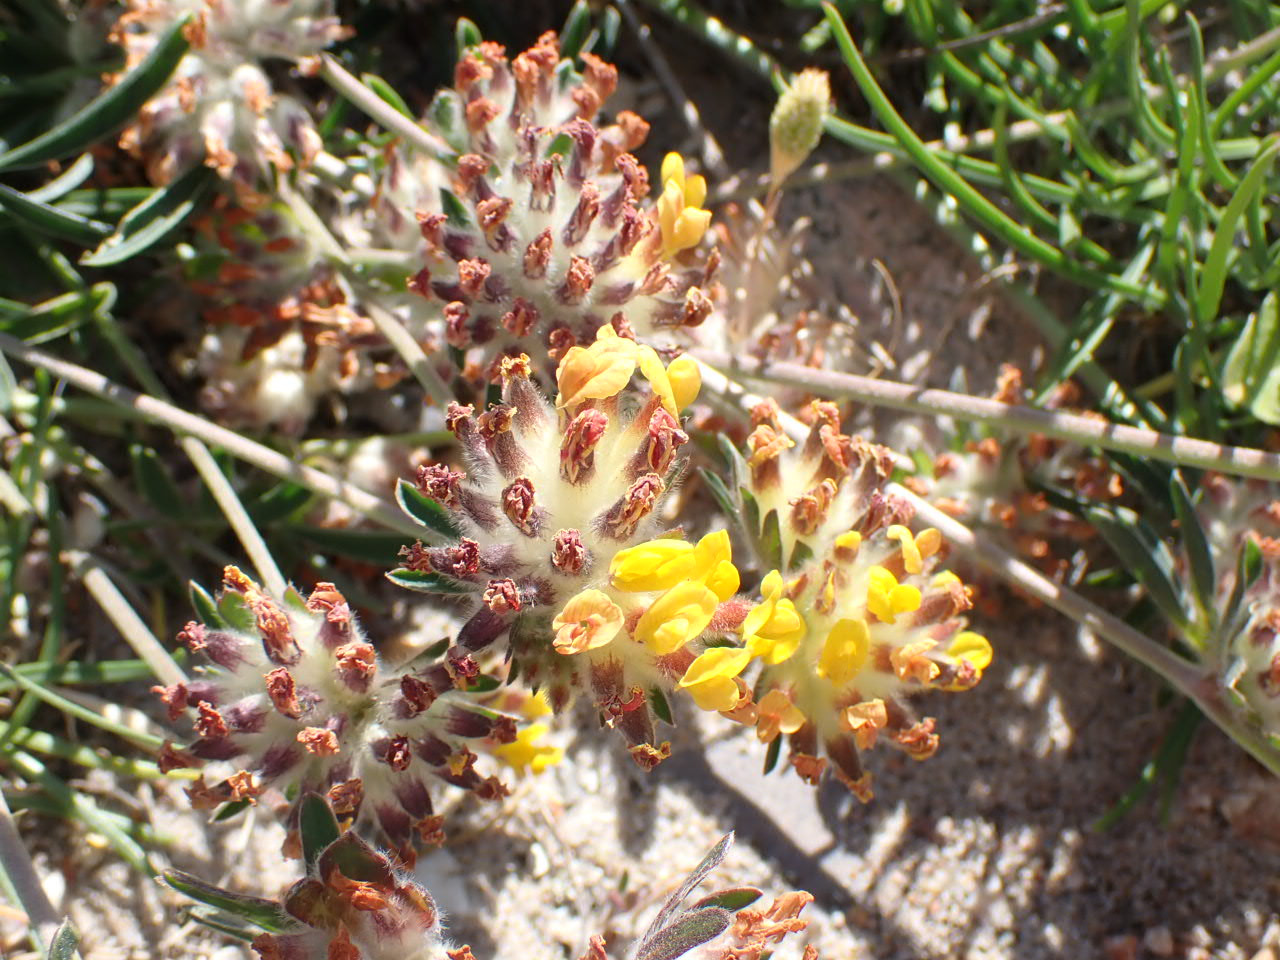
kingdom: Plantae
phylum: Tracheophyta
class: Magnoliopsida
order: Fabales
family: Fabaceae
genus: Anthyllis
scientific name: Anthyllis vulneraria
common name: Rundbælg
